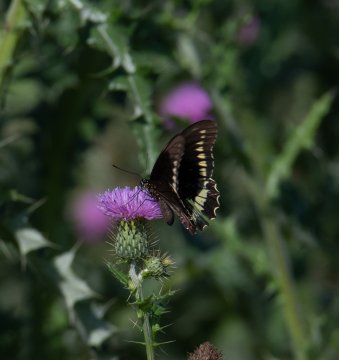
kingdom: Animalia
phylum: Arthropoda
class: Insecta
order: Lepidoptera
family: Papilionidae
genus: Battus
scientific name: Battus polydamas
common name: Polydamas Swallowtail
